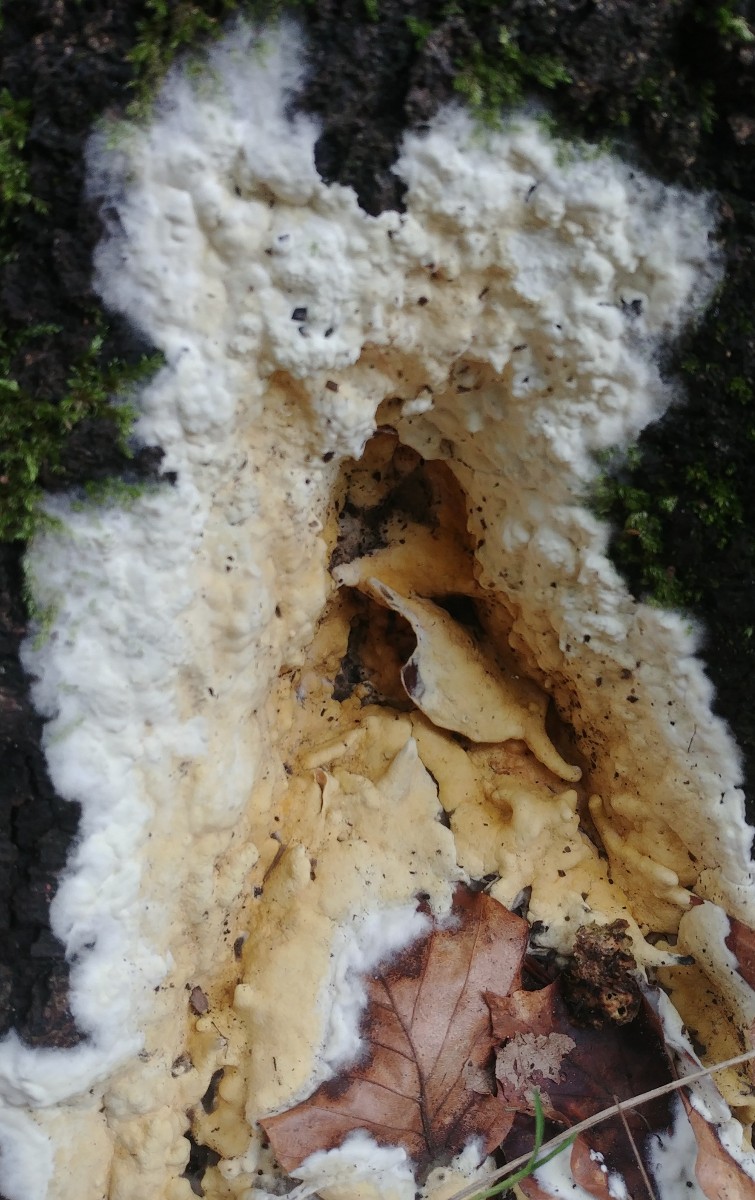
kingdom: Fungi
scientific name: Fungi
